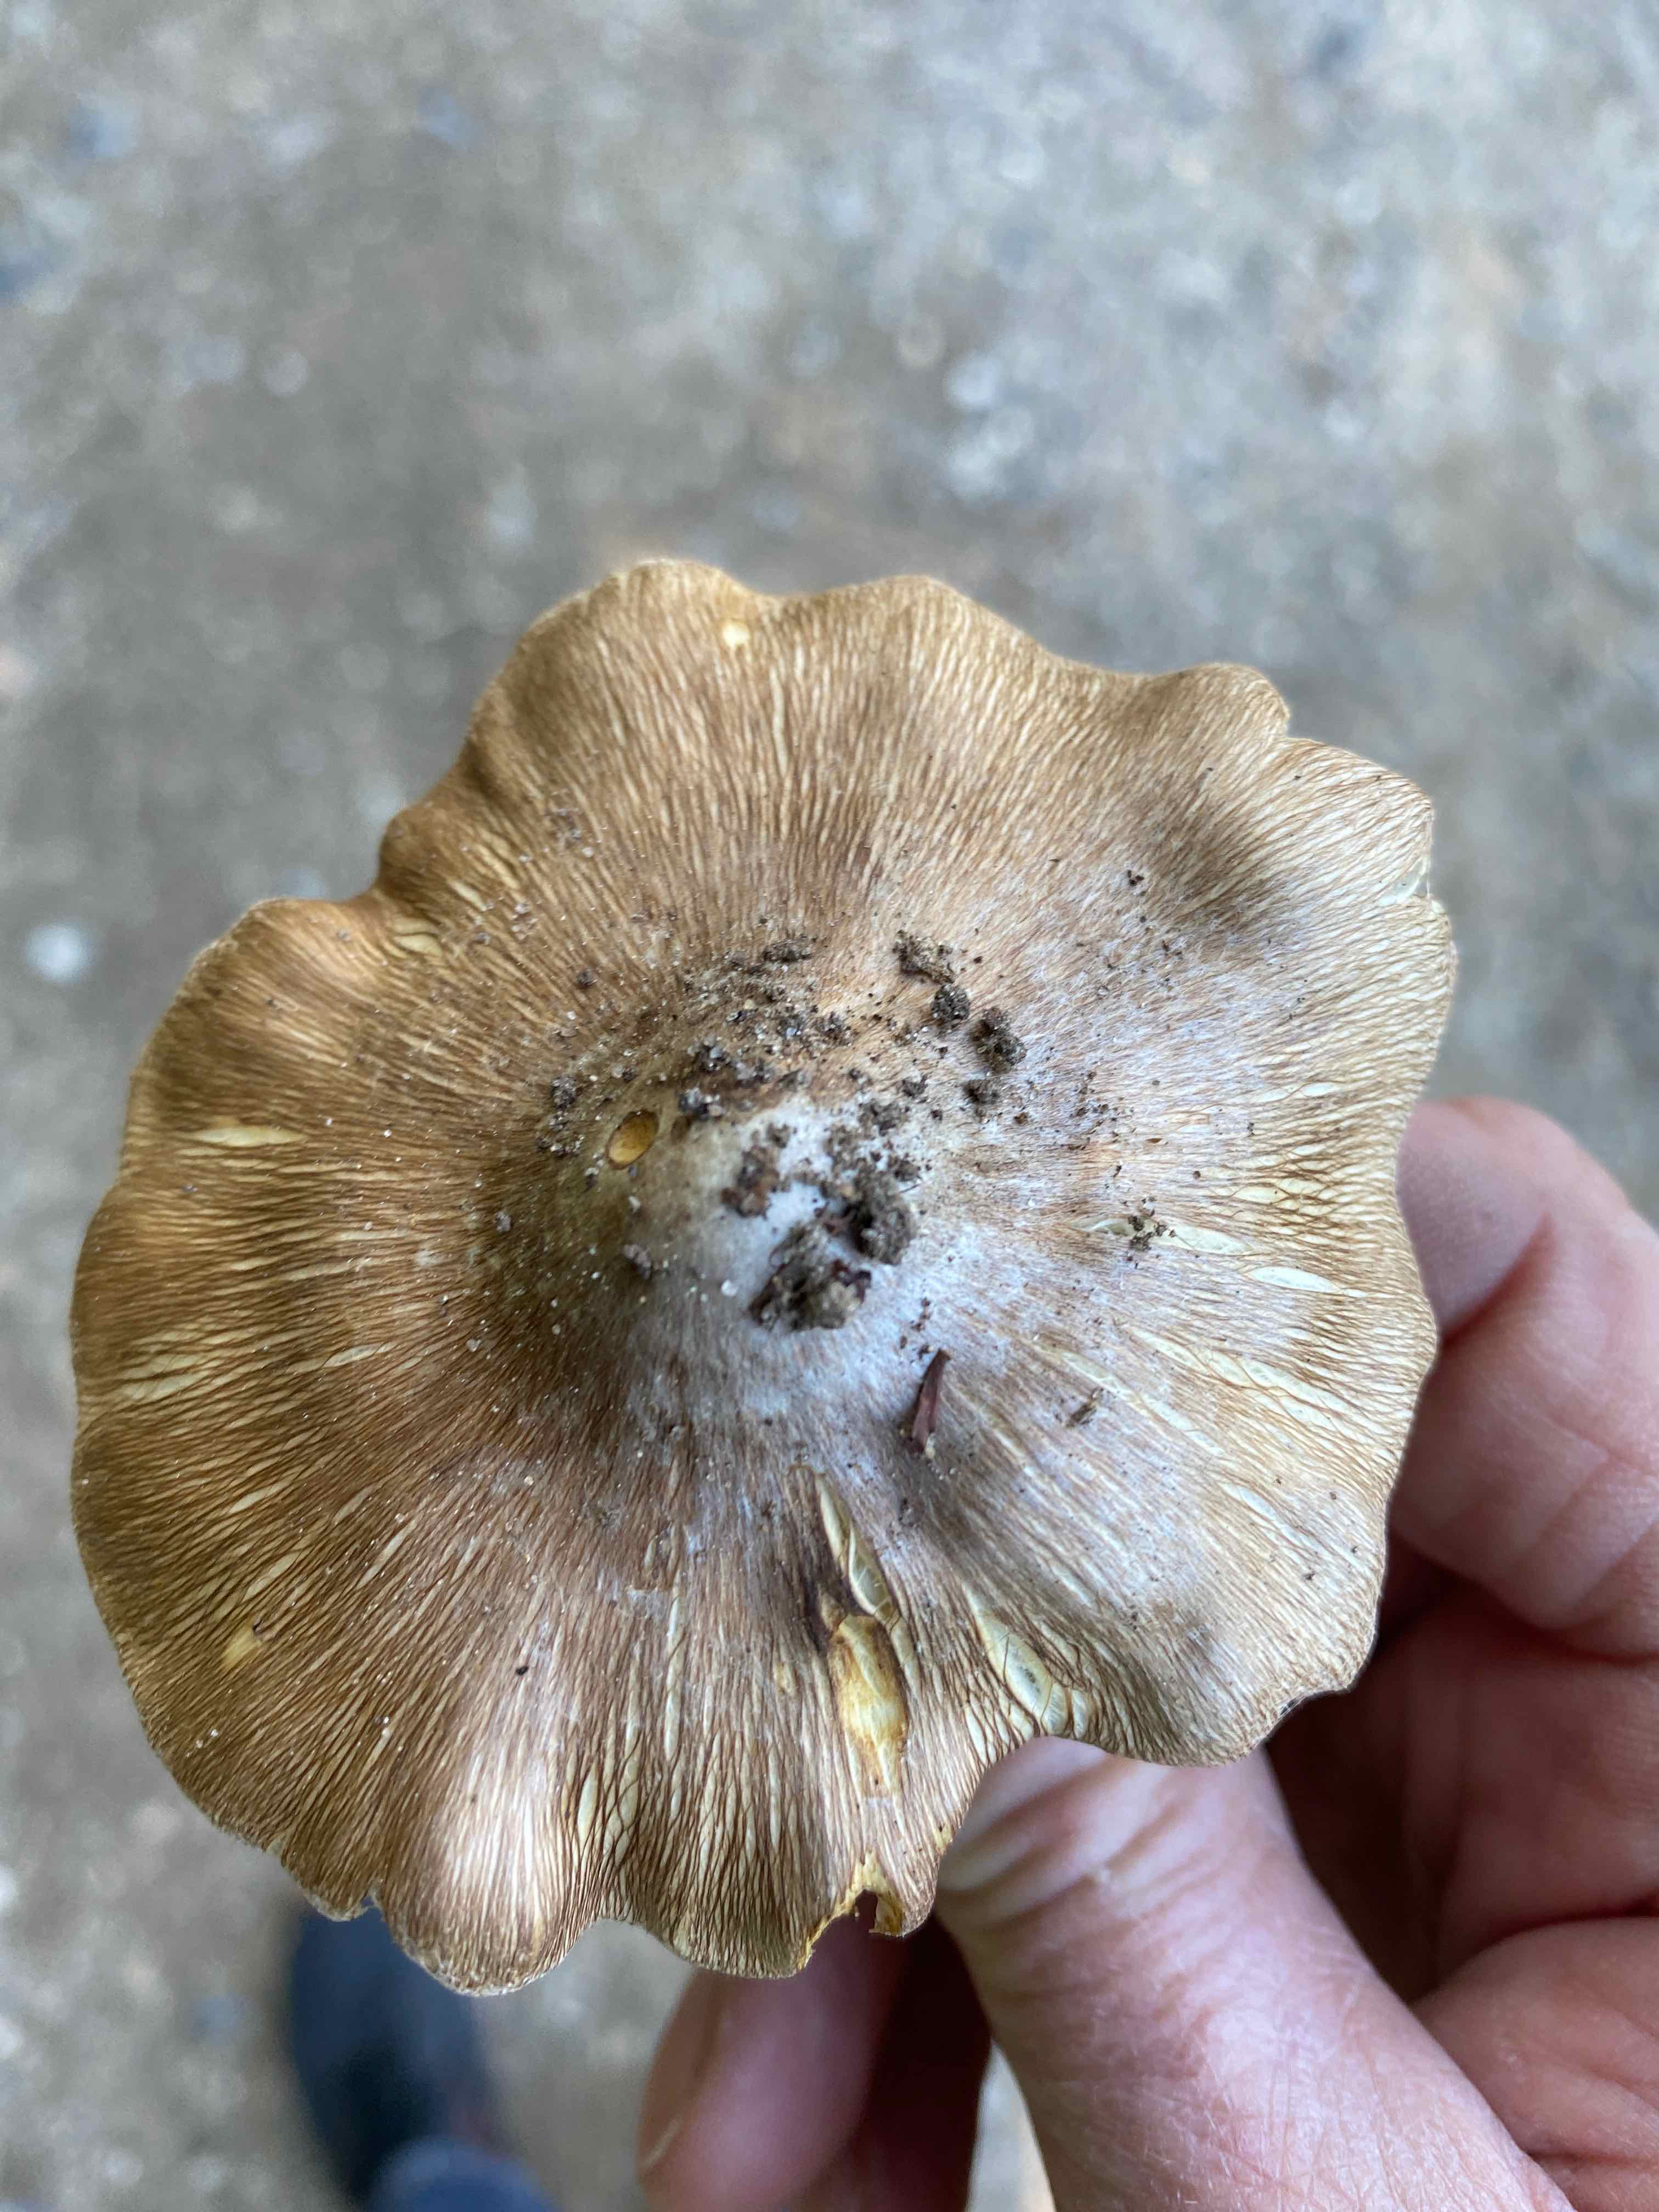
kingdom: Fungi
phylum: Basidiomycota
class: Agaricomycetes
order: Agaricales
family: Inocybaceae
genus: Inosperma
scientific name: Inosperma
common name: Trævlhat
